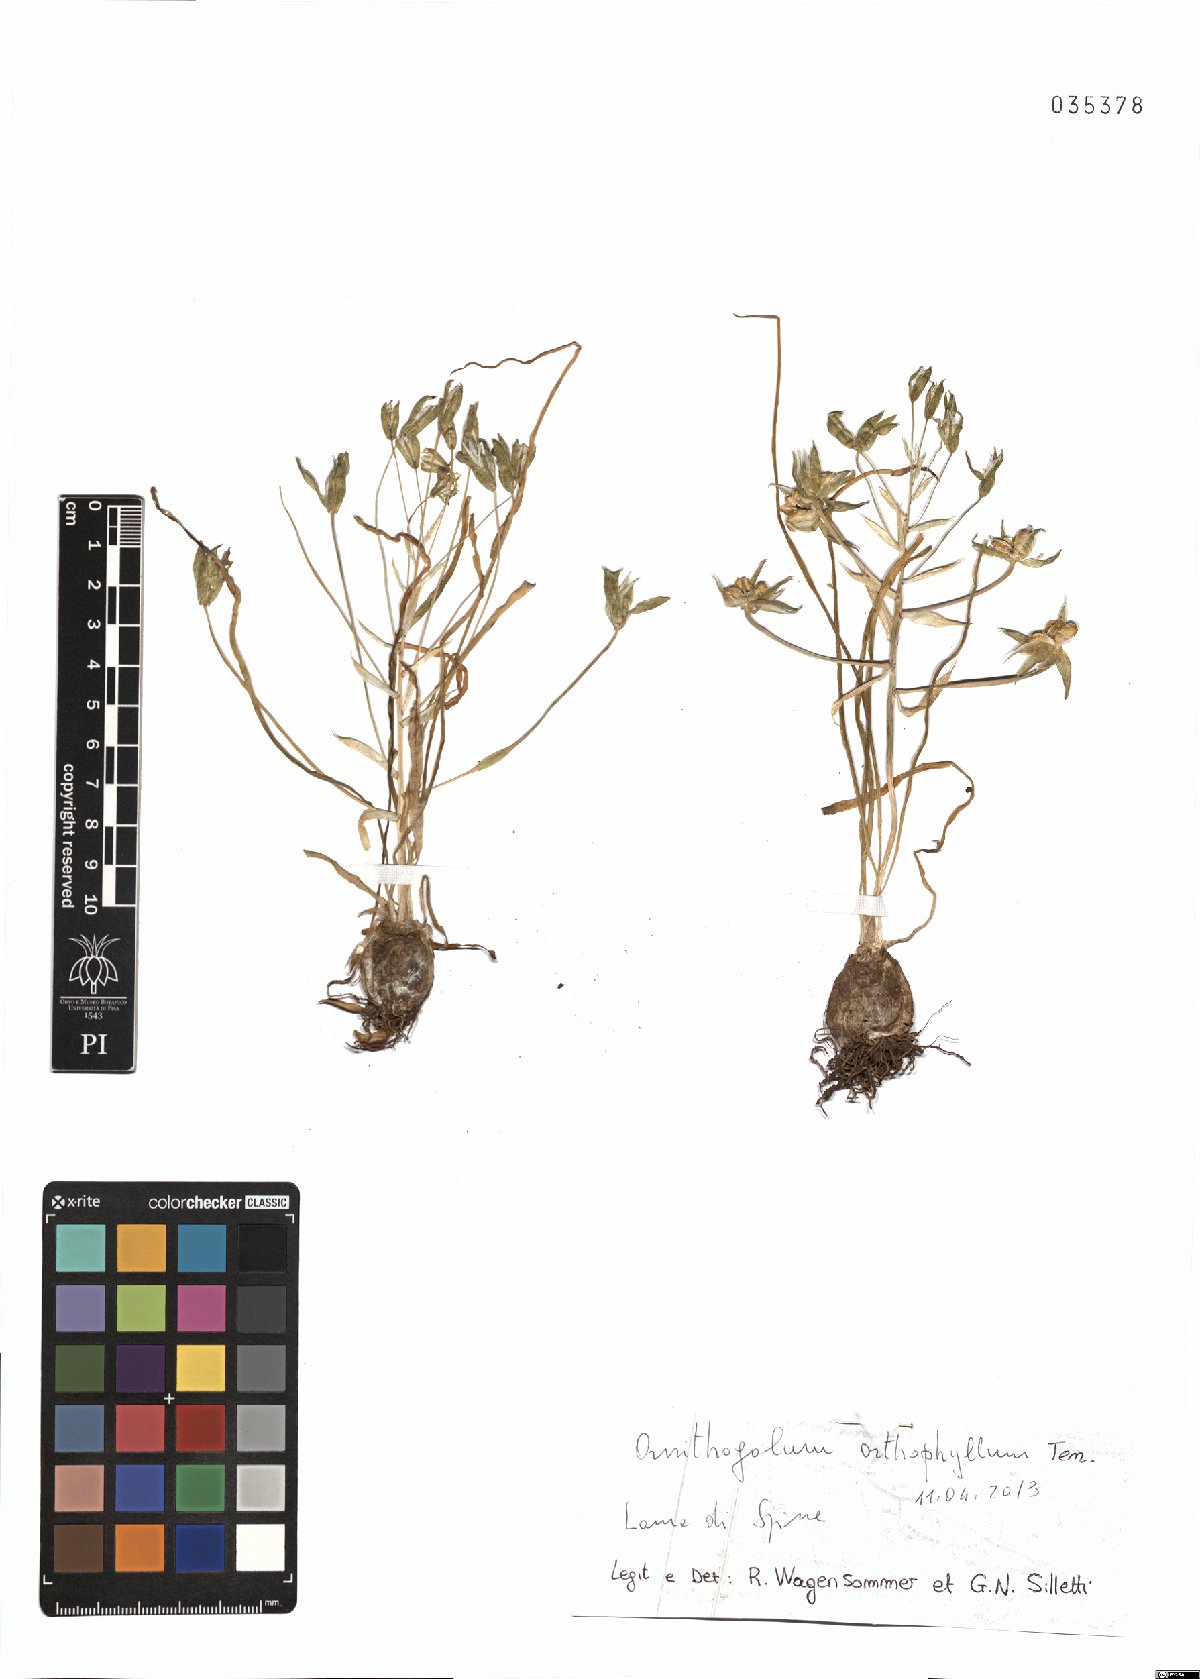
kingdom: Plantae
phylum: Tracheophyta
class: Liliopsida
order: Asparagales
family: Asparagaceae
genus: Ornithogalum
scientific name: Ornithogalum orthophyllum
